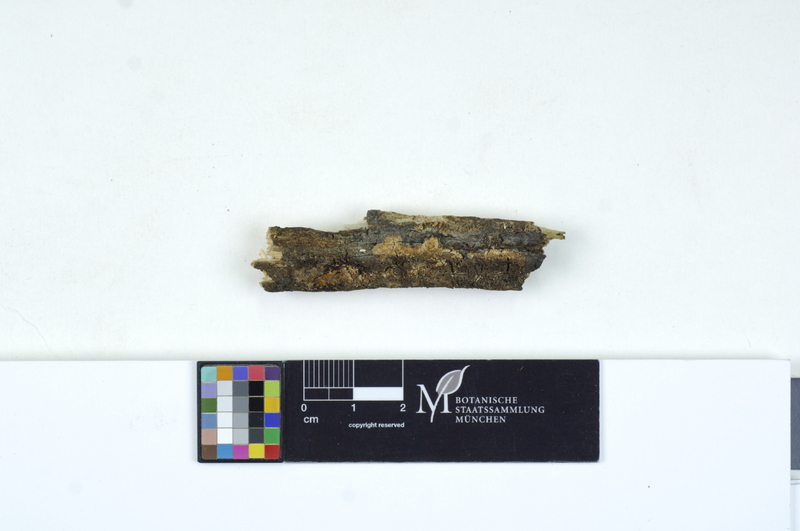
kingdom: Fungi
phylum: Basidiomycota
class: Agaricomycetes
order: Polyporales
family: Meruliaceae
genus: Mycoacia
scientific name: Mycoacia uda
